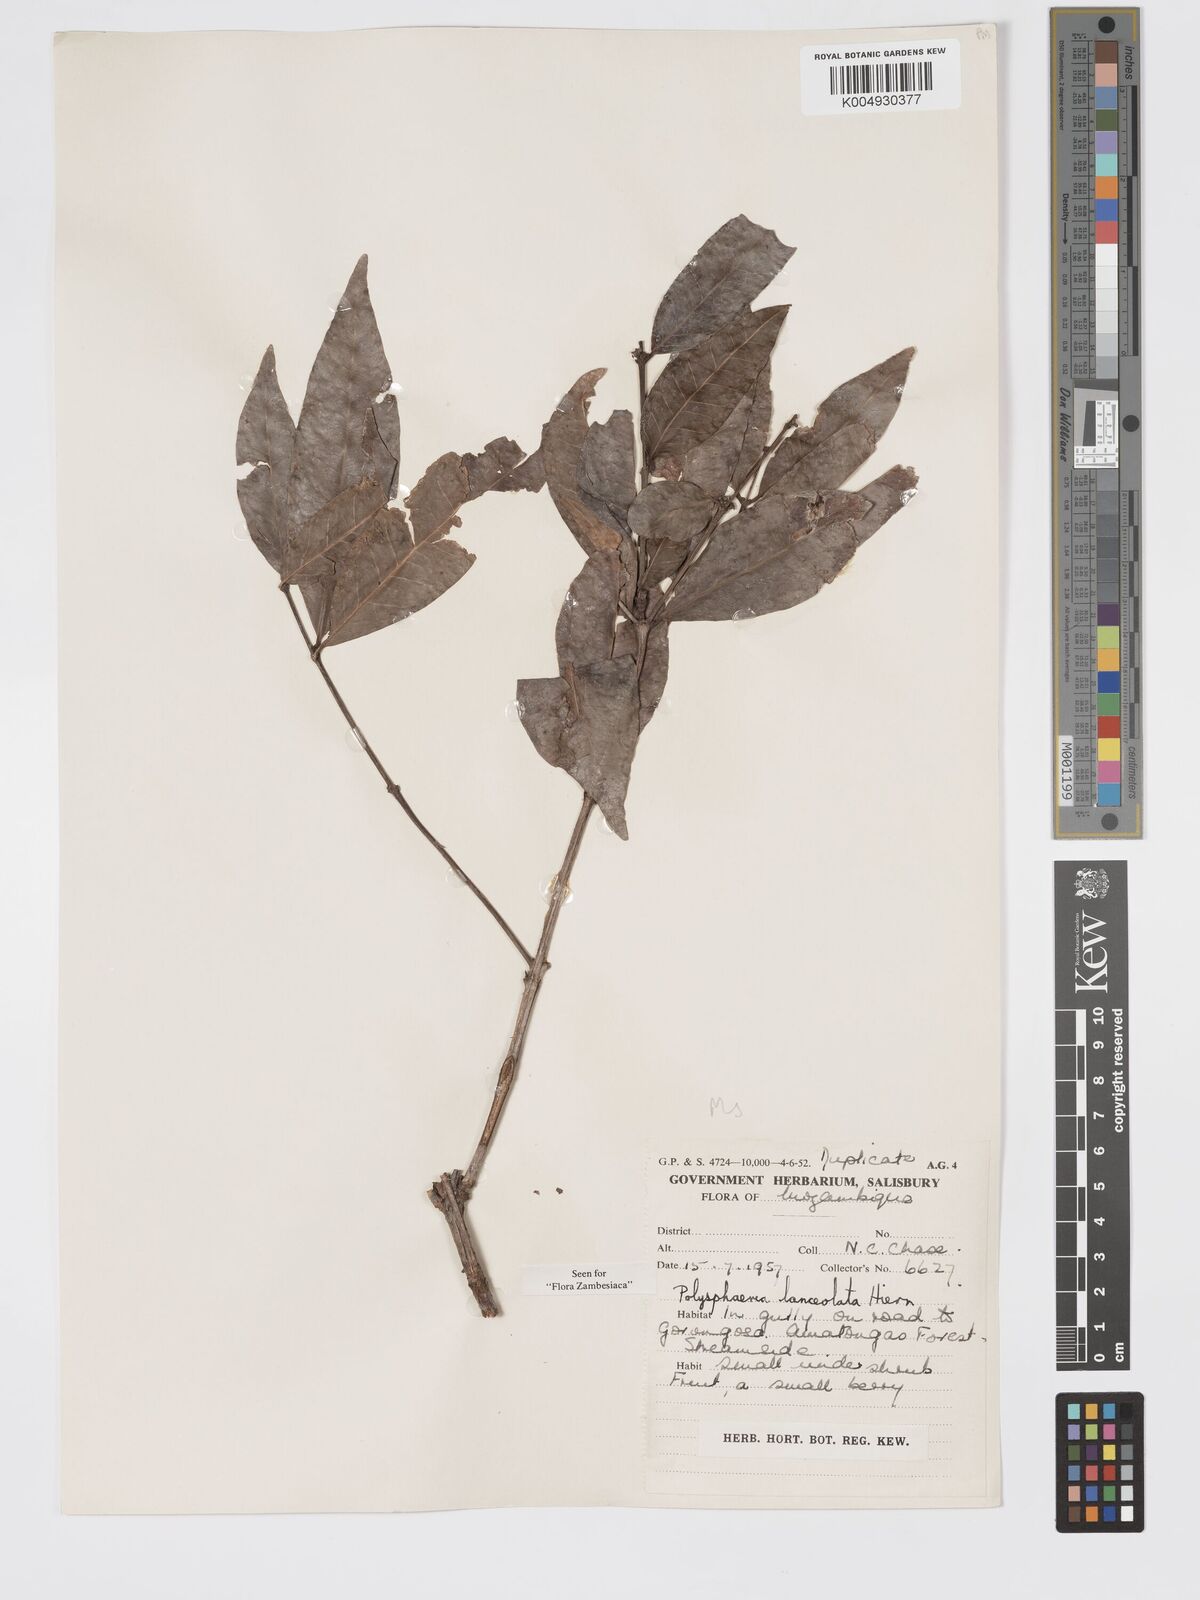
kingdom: Plantae
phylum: Tracheophyta
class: Magnoliopsida
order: Gentianales
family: Rubiaceae
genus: Polysphaeria
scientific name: Polysphaeria lanceolata
